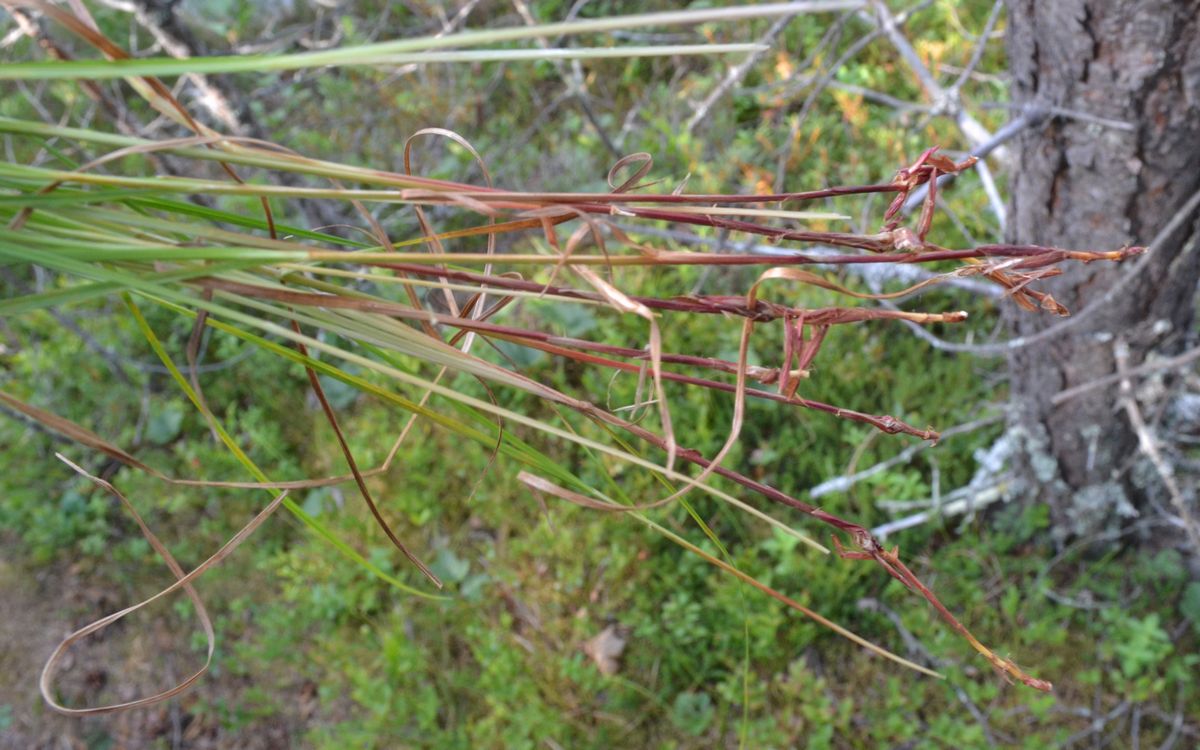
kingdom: Plantae
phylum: Tracheophyta
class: Liliopsida
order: Poales
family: Cyperaceae
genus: Carex
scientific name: Carex globularis
